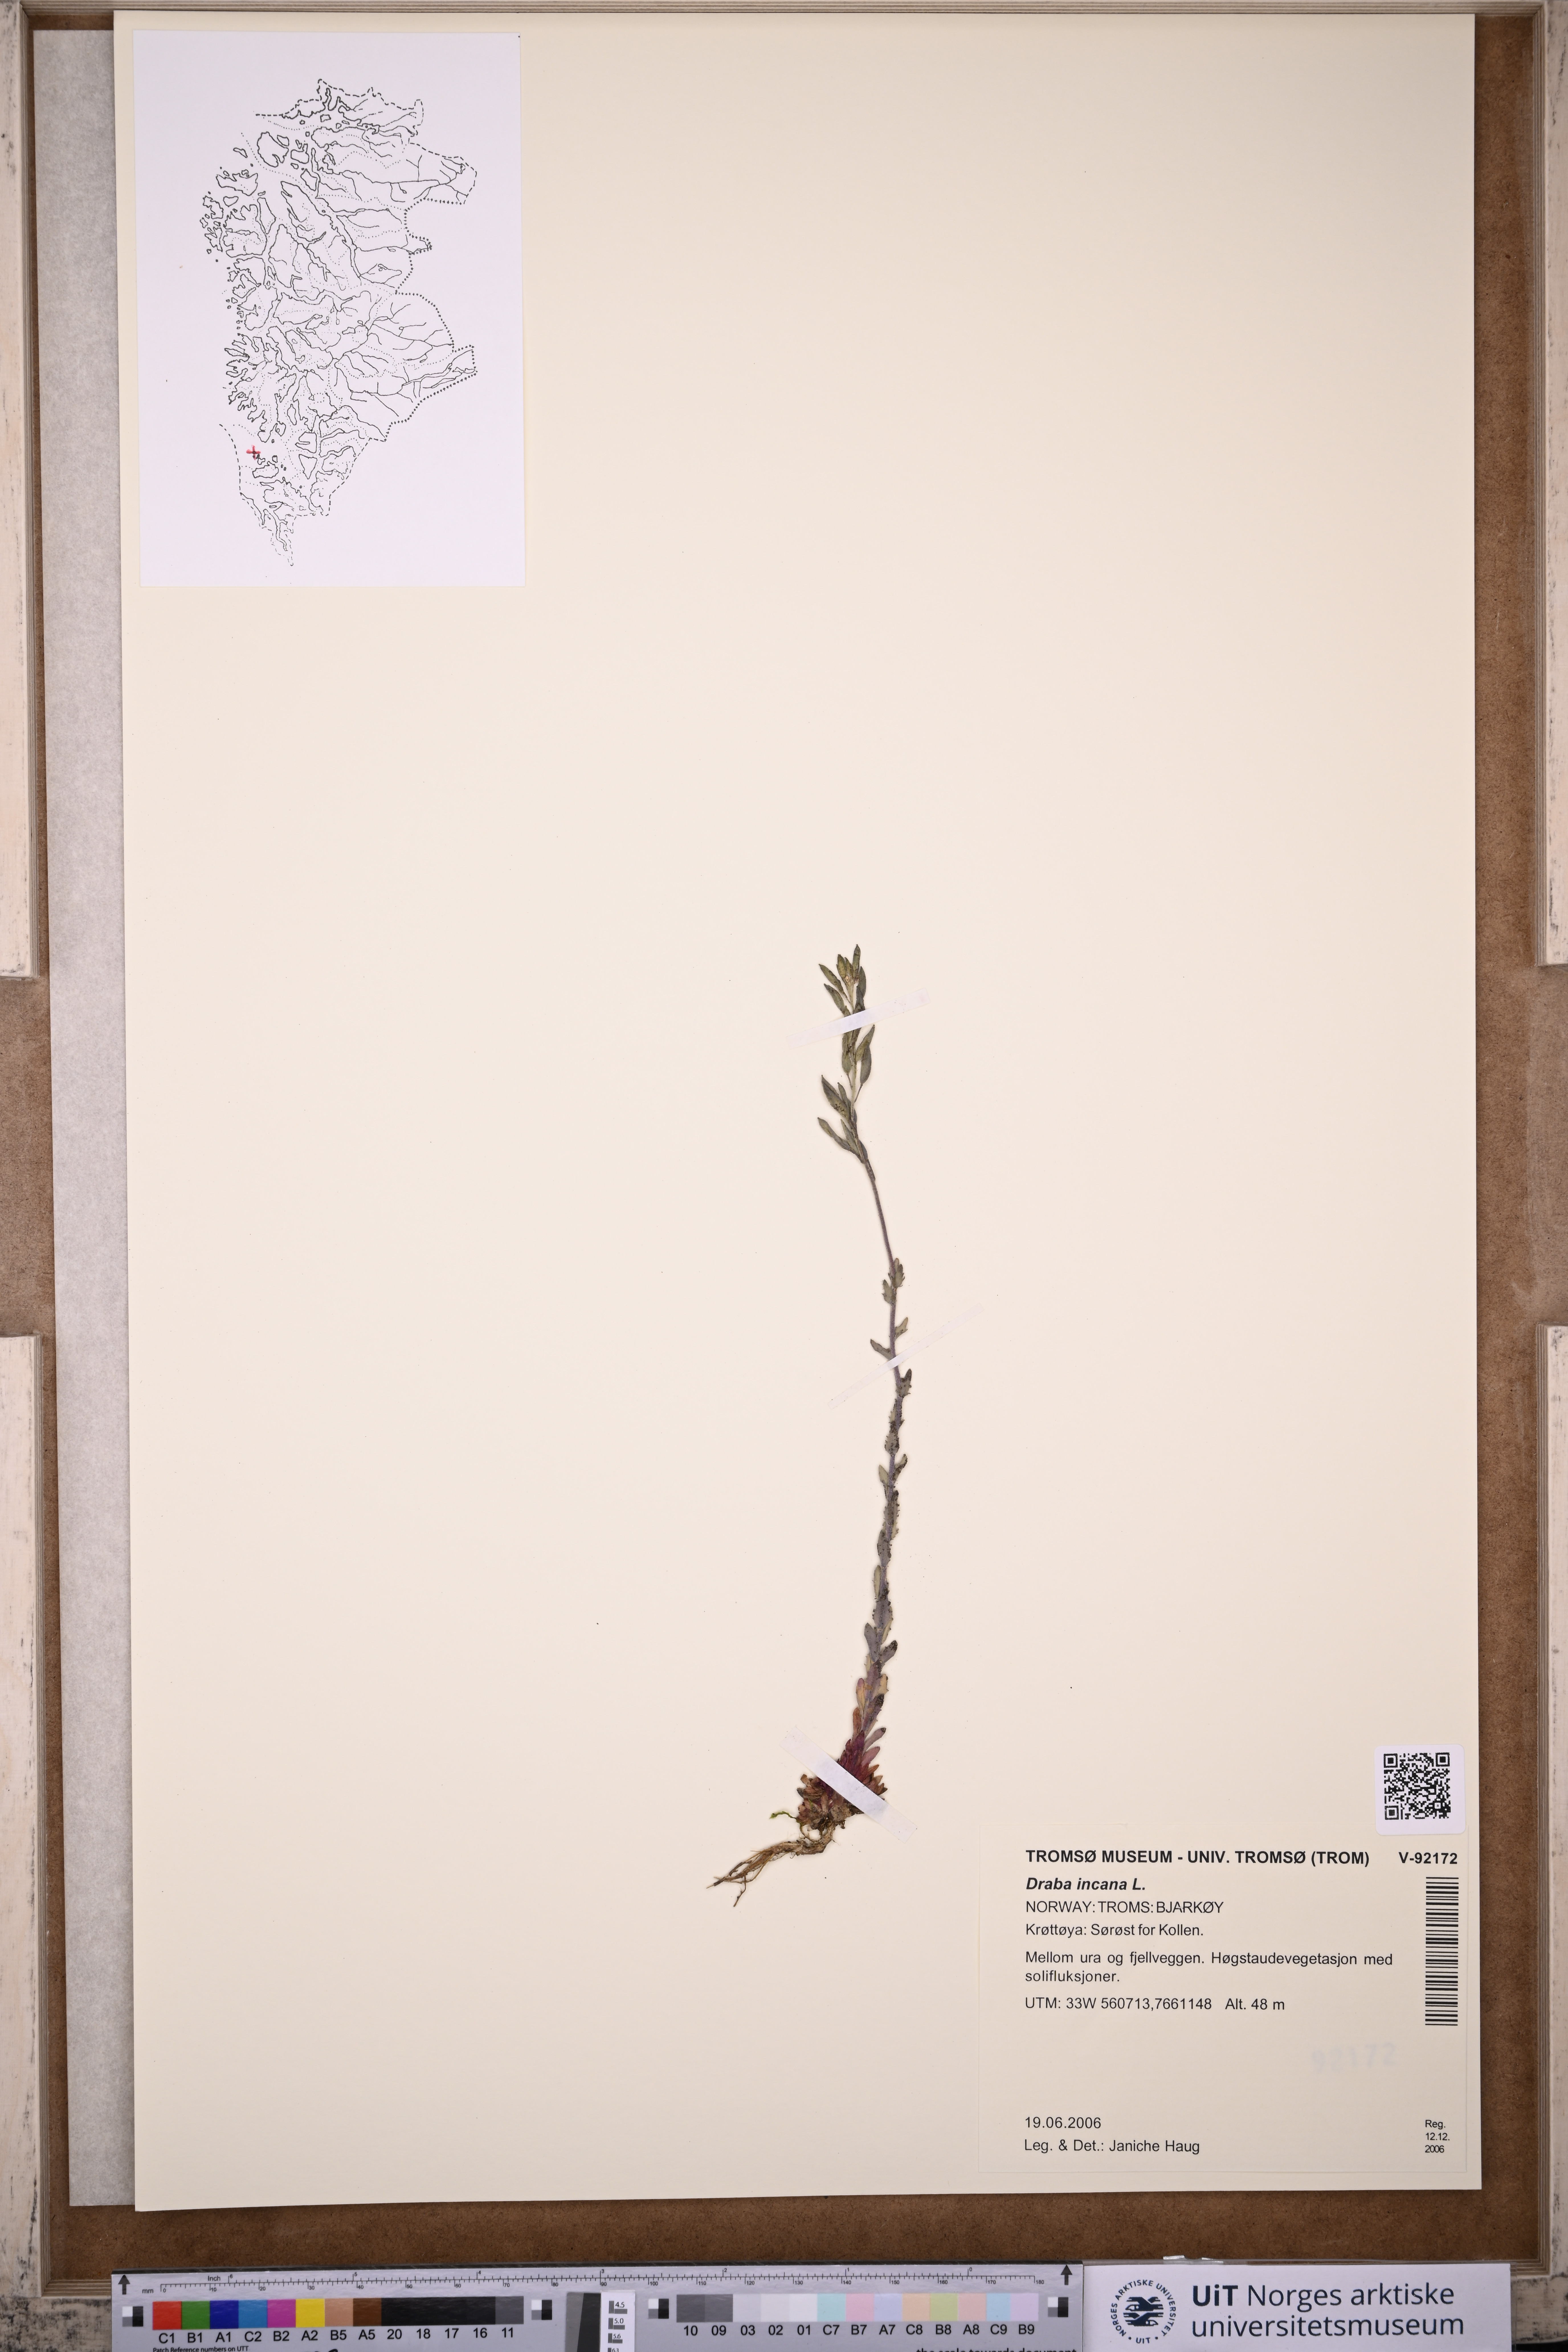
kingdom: Plantae
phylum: Tracheophyta
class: Magnoliopsida
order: Brassicales
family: Brassicaceae
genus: Draba
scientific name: Draba incana
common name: Hoary whitlow-grass
